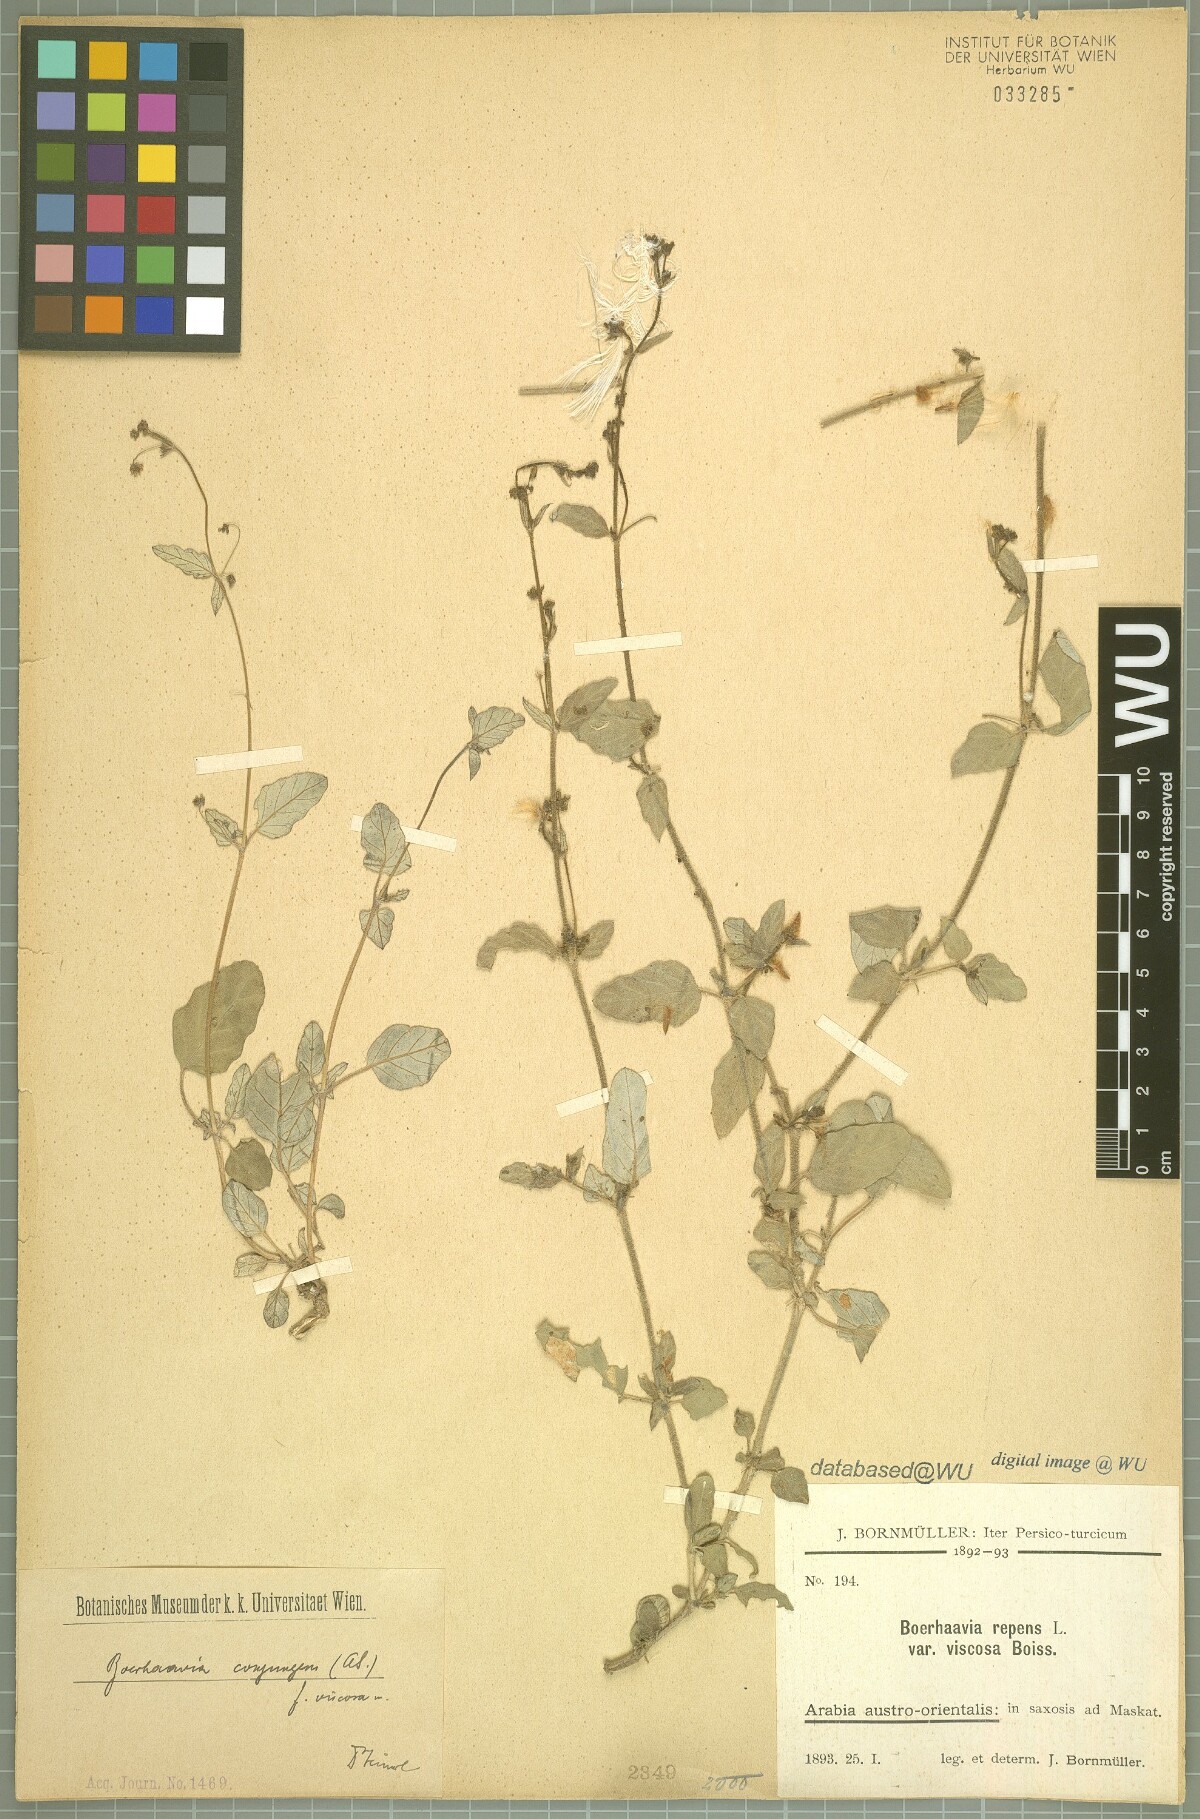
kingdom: Plantae
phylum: Tracheophyta
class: Magnoliopsida
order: Caryophyllales
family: Nyctaginaceae
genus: Boerhavia
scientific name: Boerhavia
